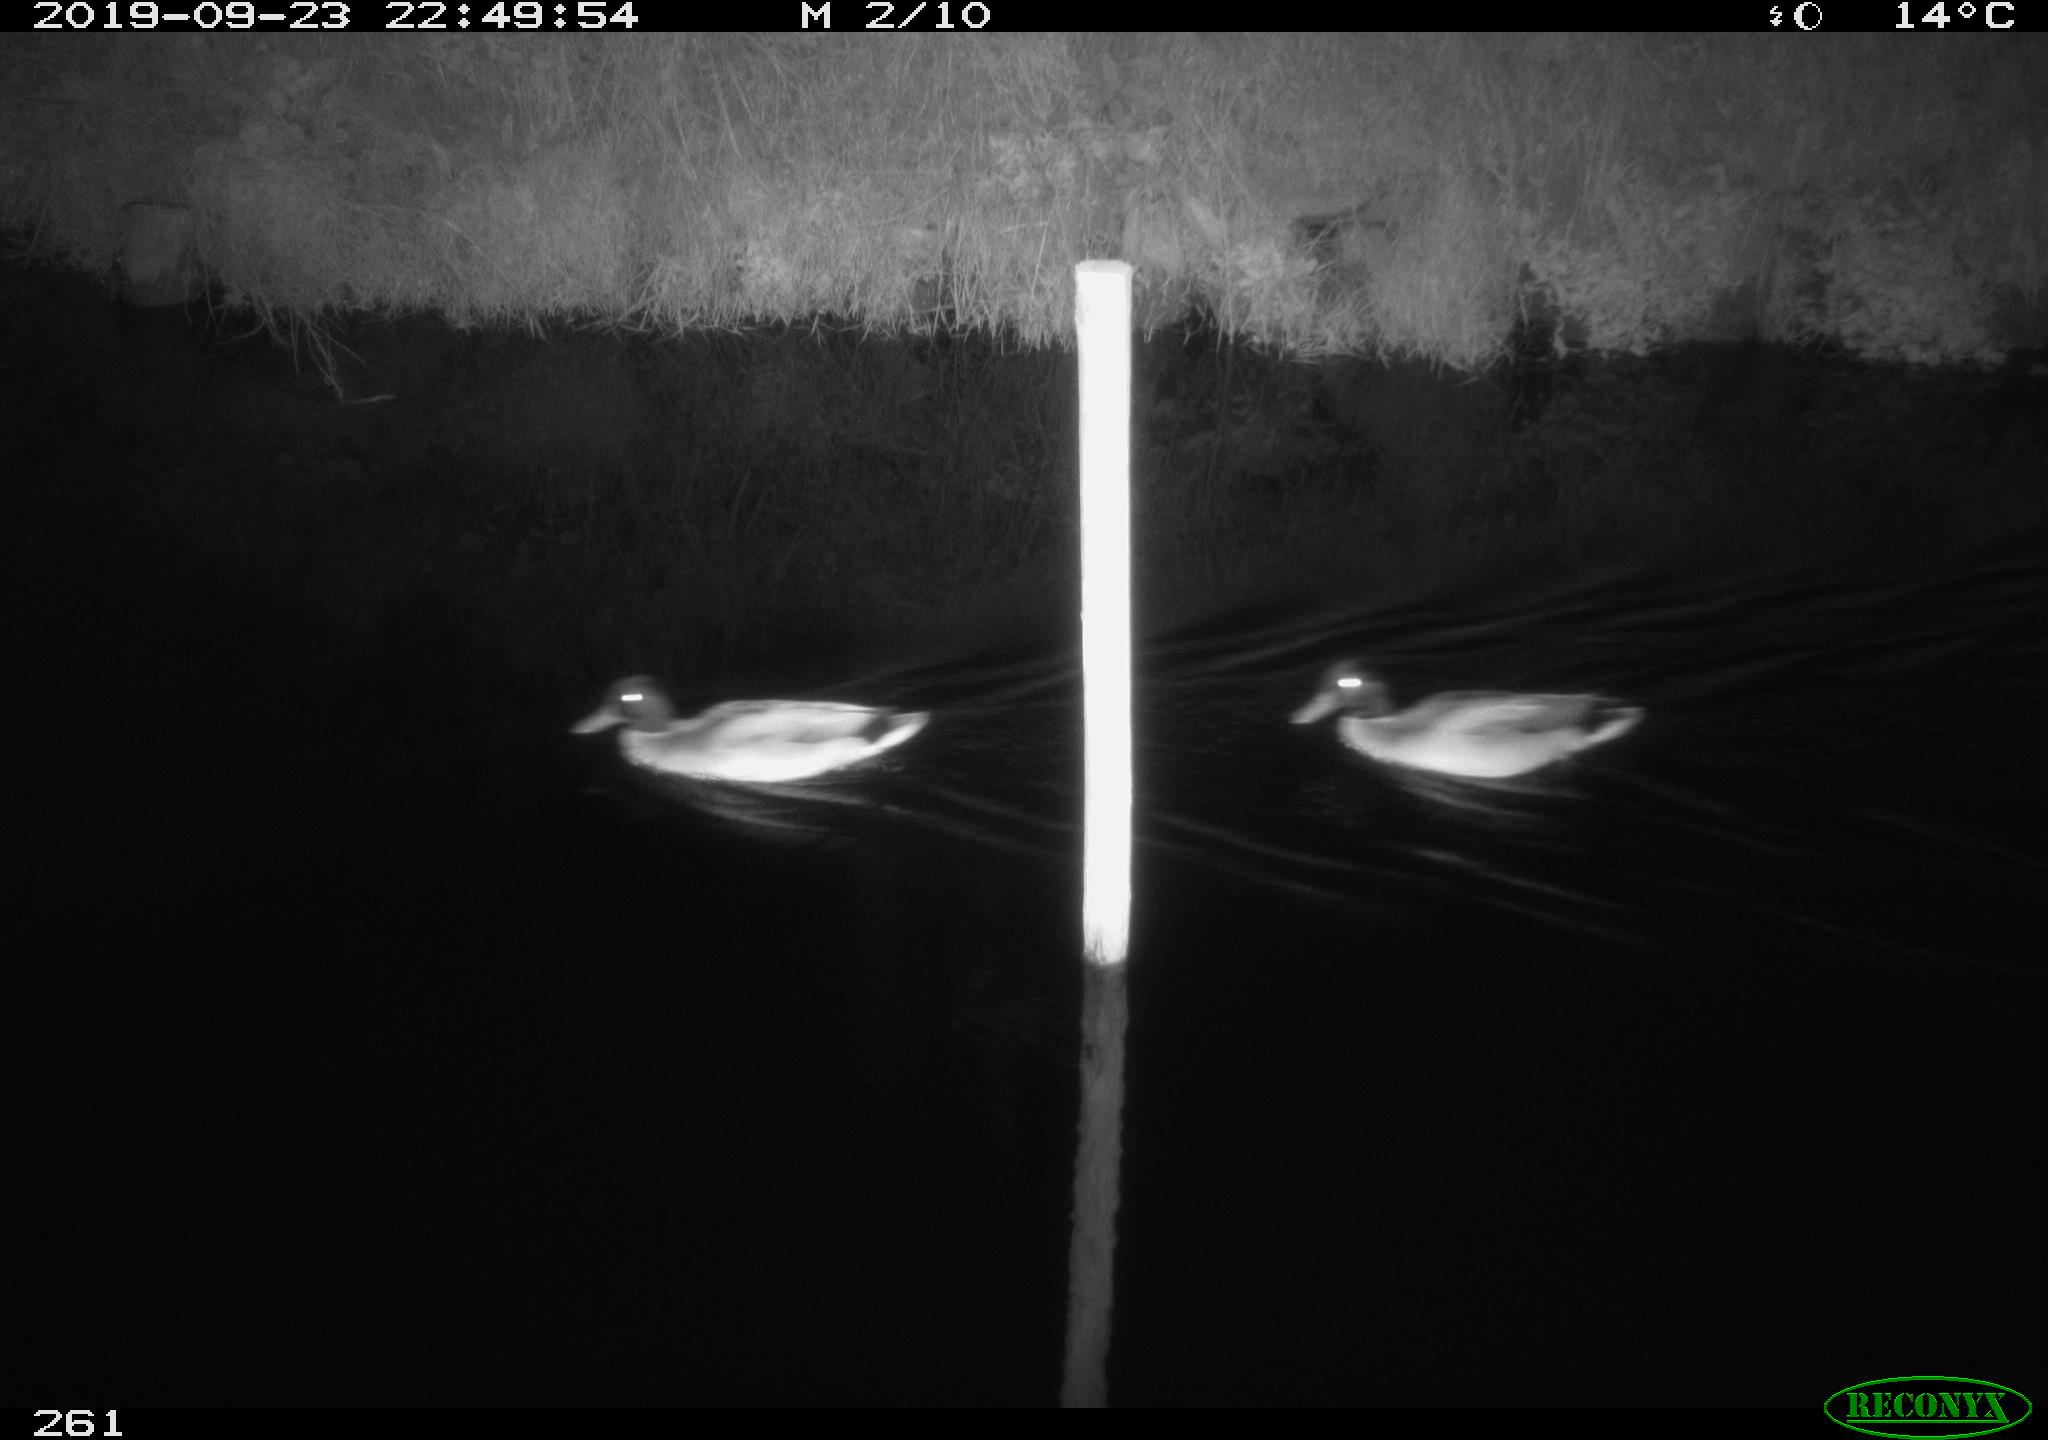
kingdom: Animalia
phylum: Chordata
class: Aves
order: Anseriformes
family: Anatidae
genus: Anas
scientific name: Anas platyrhynchos
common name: Mallard
